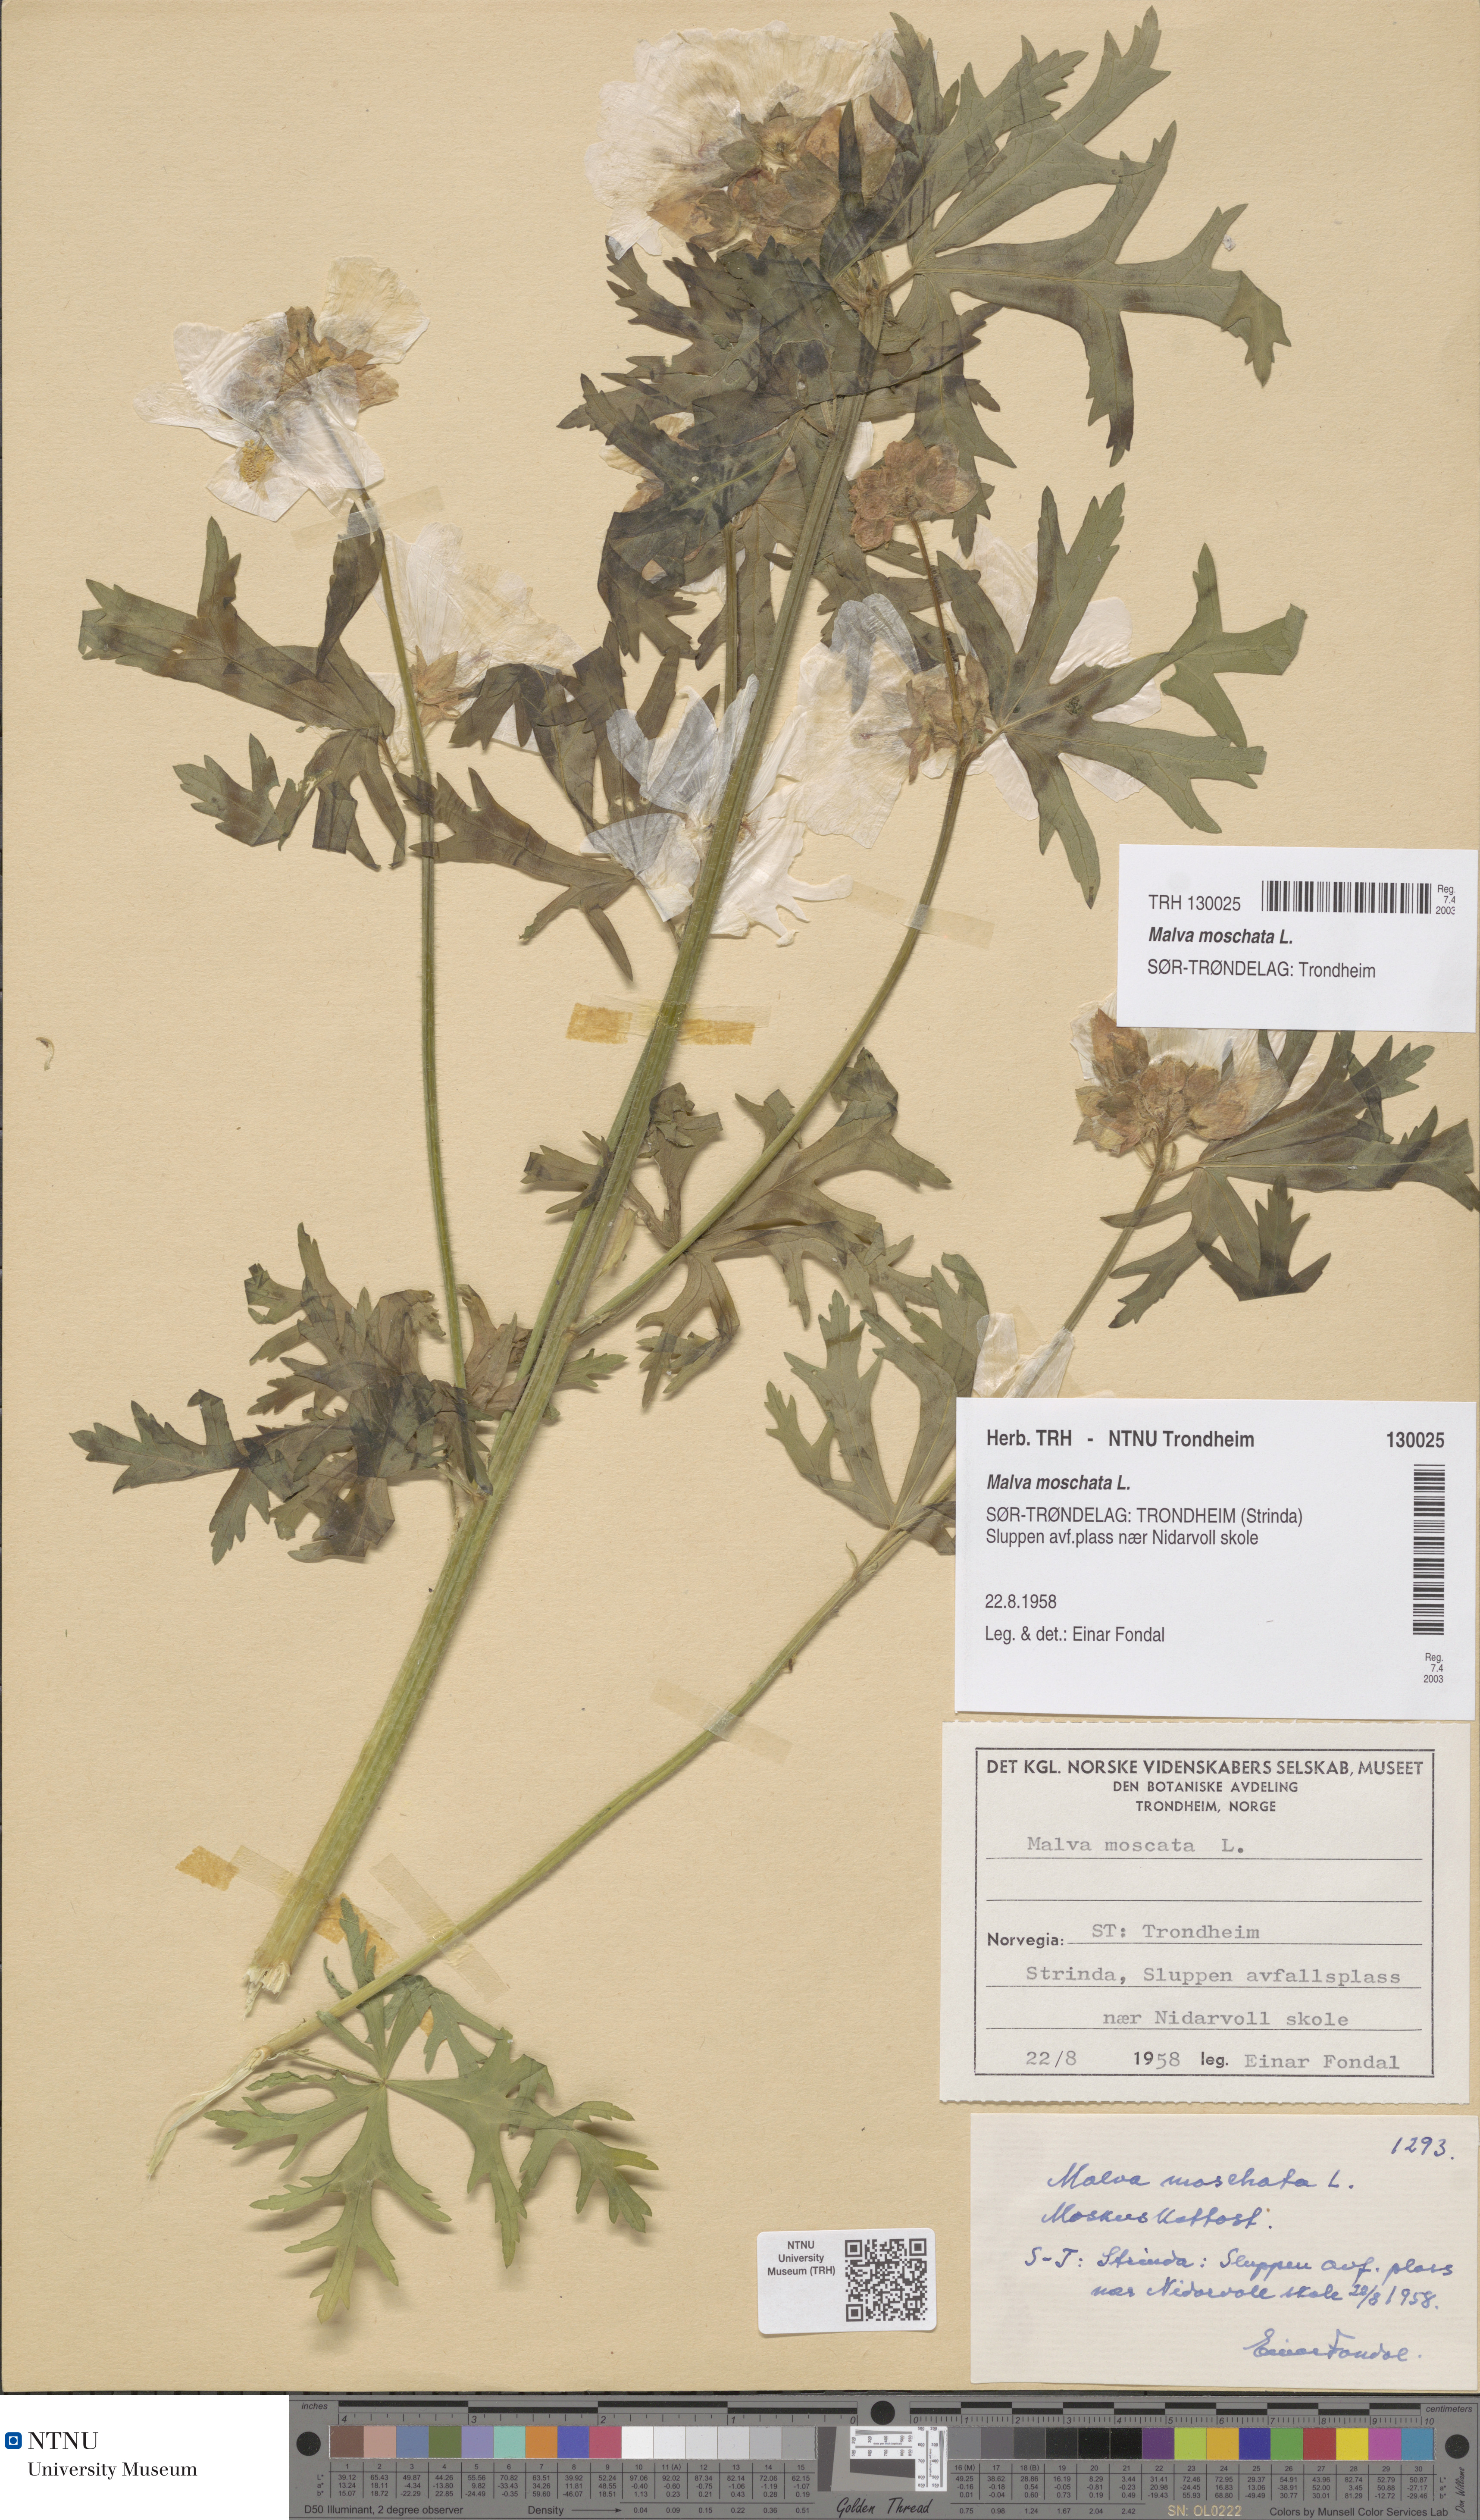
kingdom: Plantae
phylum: Tracheophyta
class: Magnoliopsida
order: Malvales
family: Malvaceae
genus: Malva
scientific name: Malva moschata
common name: Musk mallow
